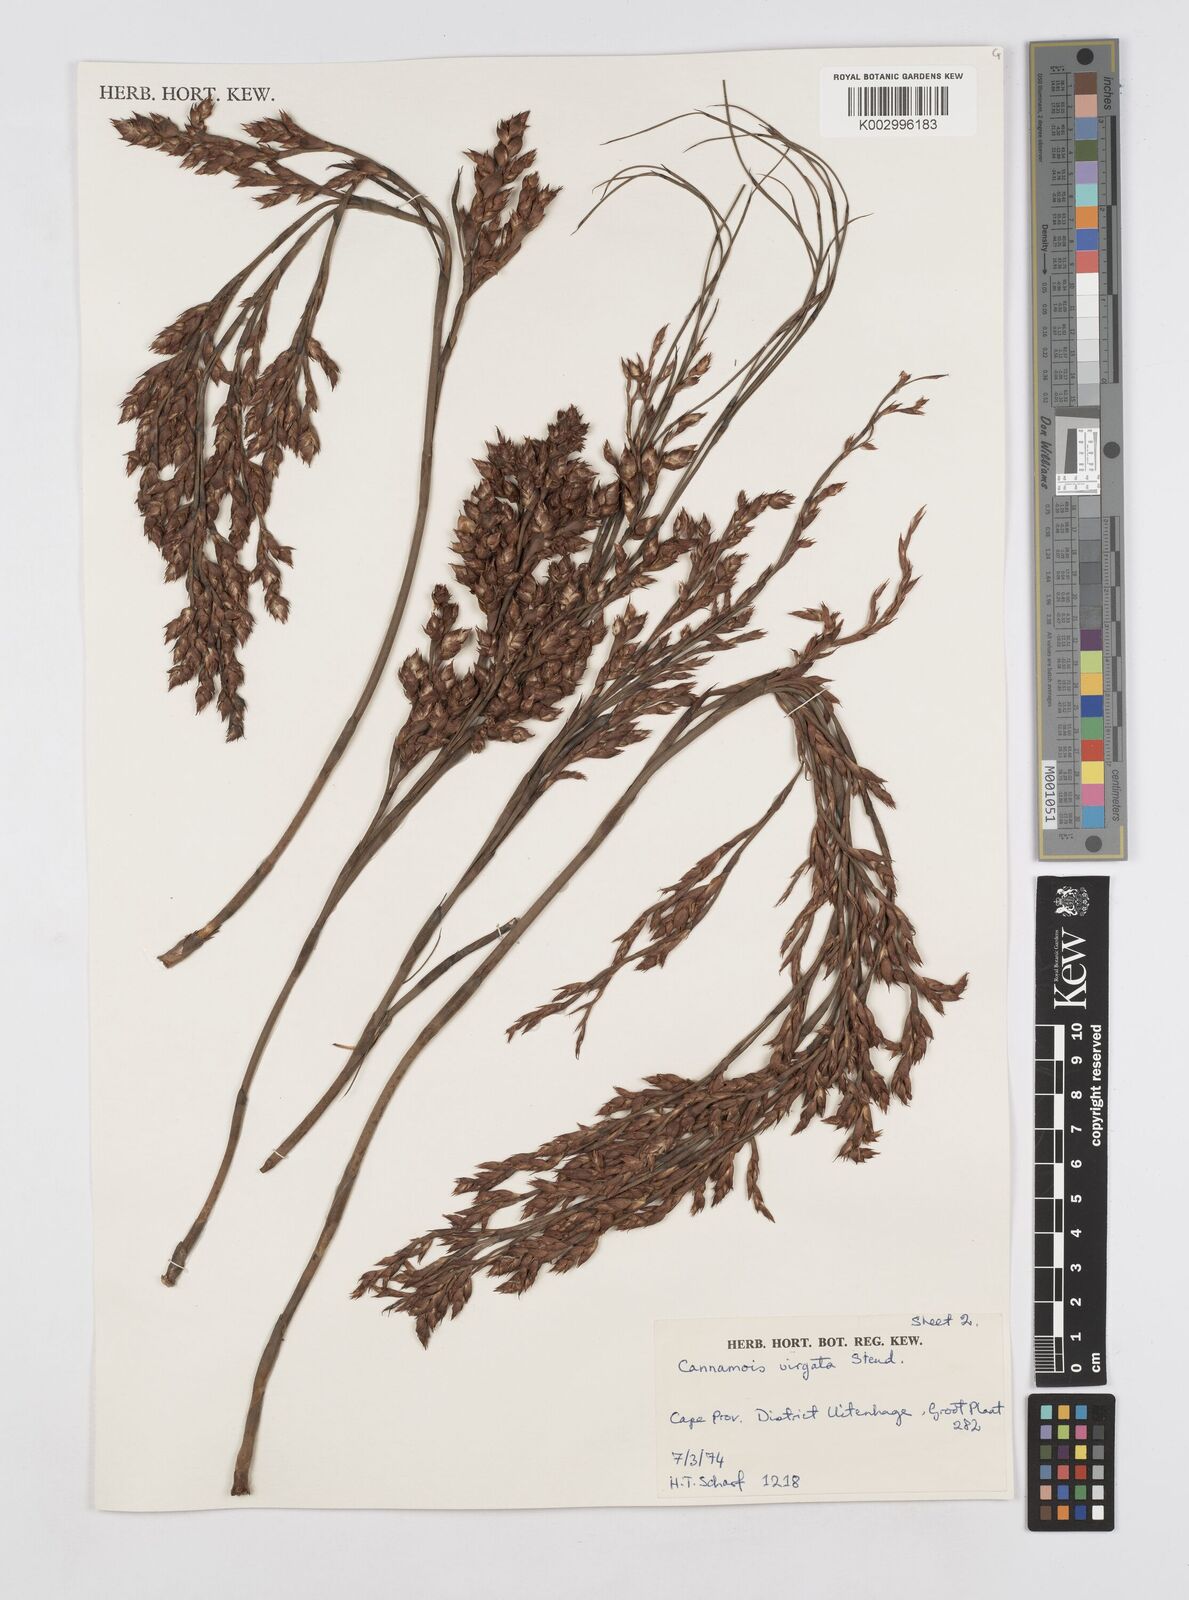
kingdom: Plantae
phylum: Tracheophyta
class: Liliopsida
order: Poales
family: Restionaceae
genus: Cannomois
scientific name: Cannomois virgata
